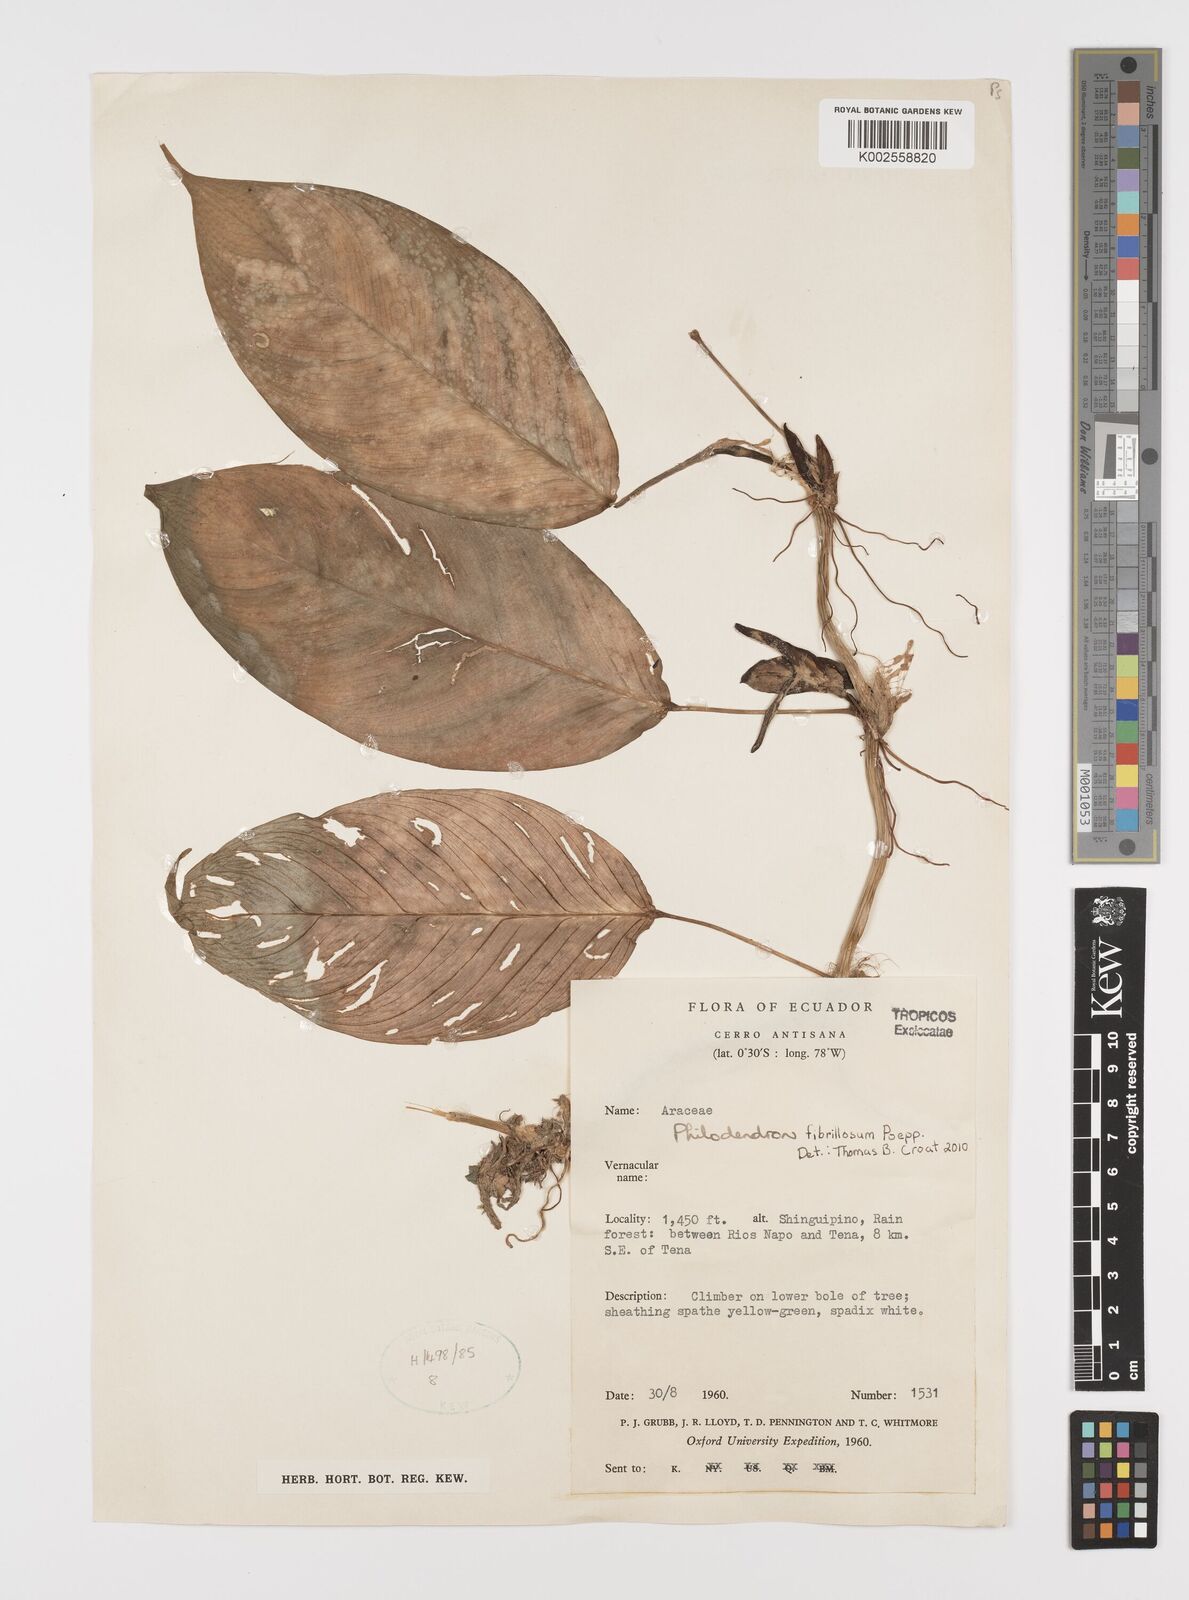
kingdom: Plantae
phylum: Tracheophyta
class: Liliopsida
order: Alismatales
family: Araceae
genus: Philodendron
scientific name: Philodendron fibrillosum
